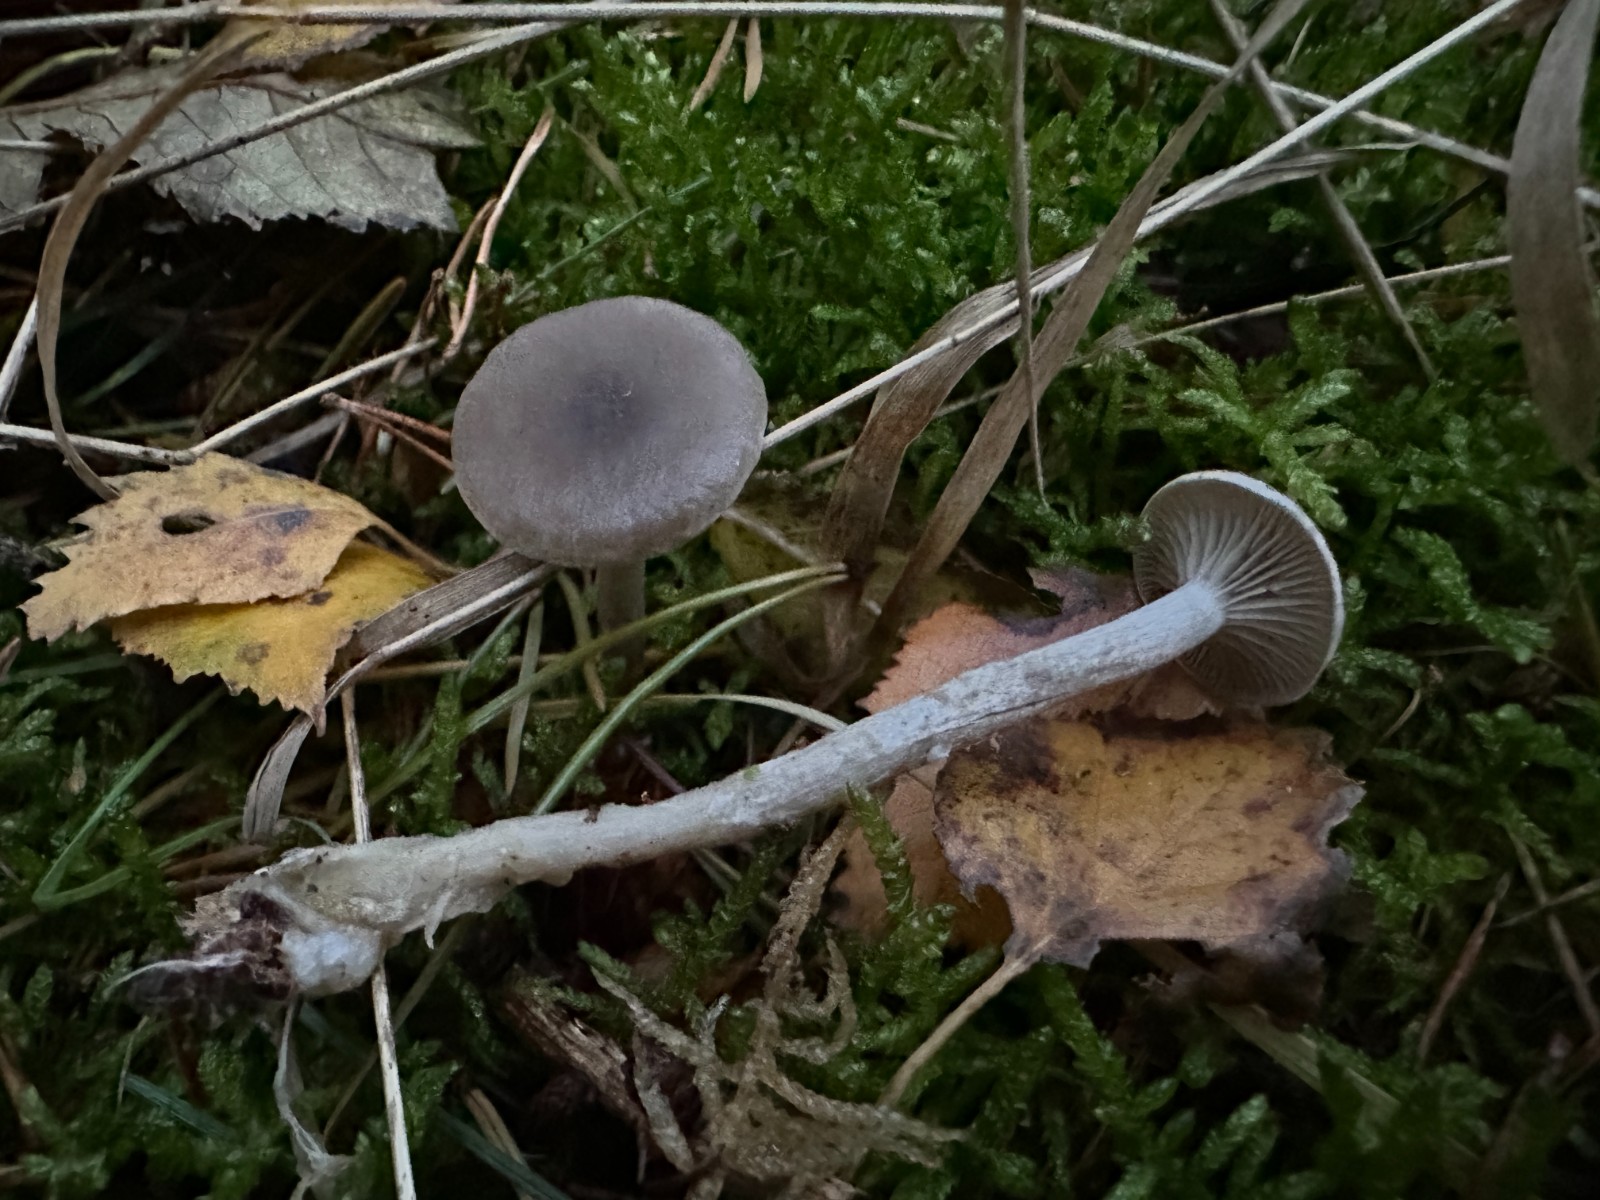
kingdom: Fungi
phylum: Basidiomycota
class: Agaricomycetes
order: Agaricales
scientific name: Agaricales
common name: champignonordenen
